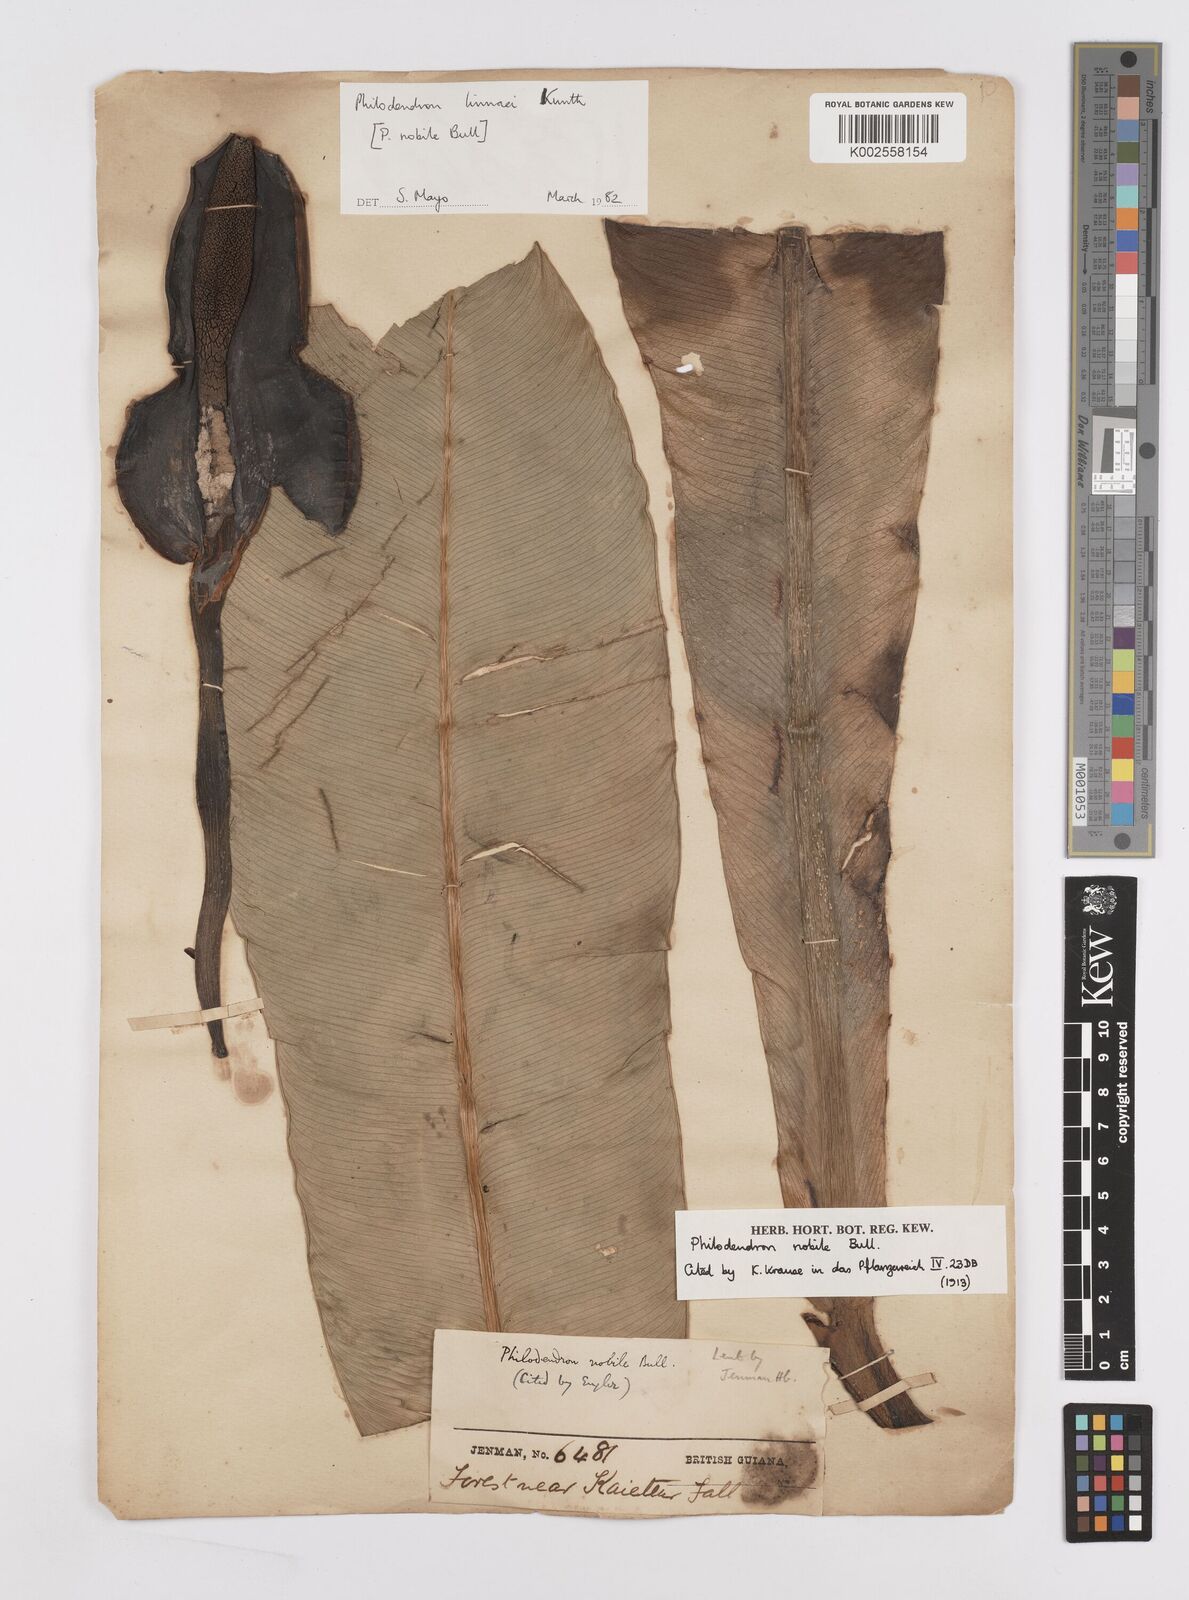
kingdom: Plantae
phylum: Tracheophyta
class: Liliopsida
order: Alismatales
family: Araceae
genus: Philodendron
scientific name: Philodendron linnaei
